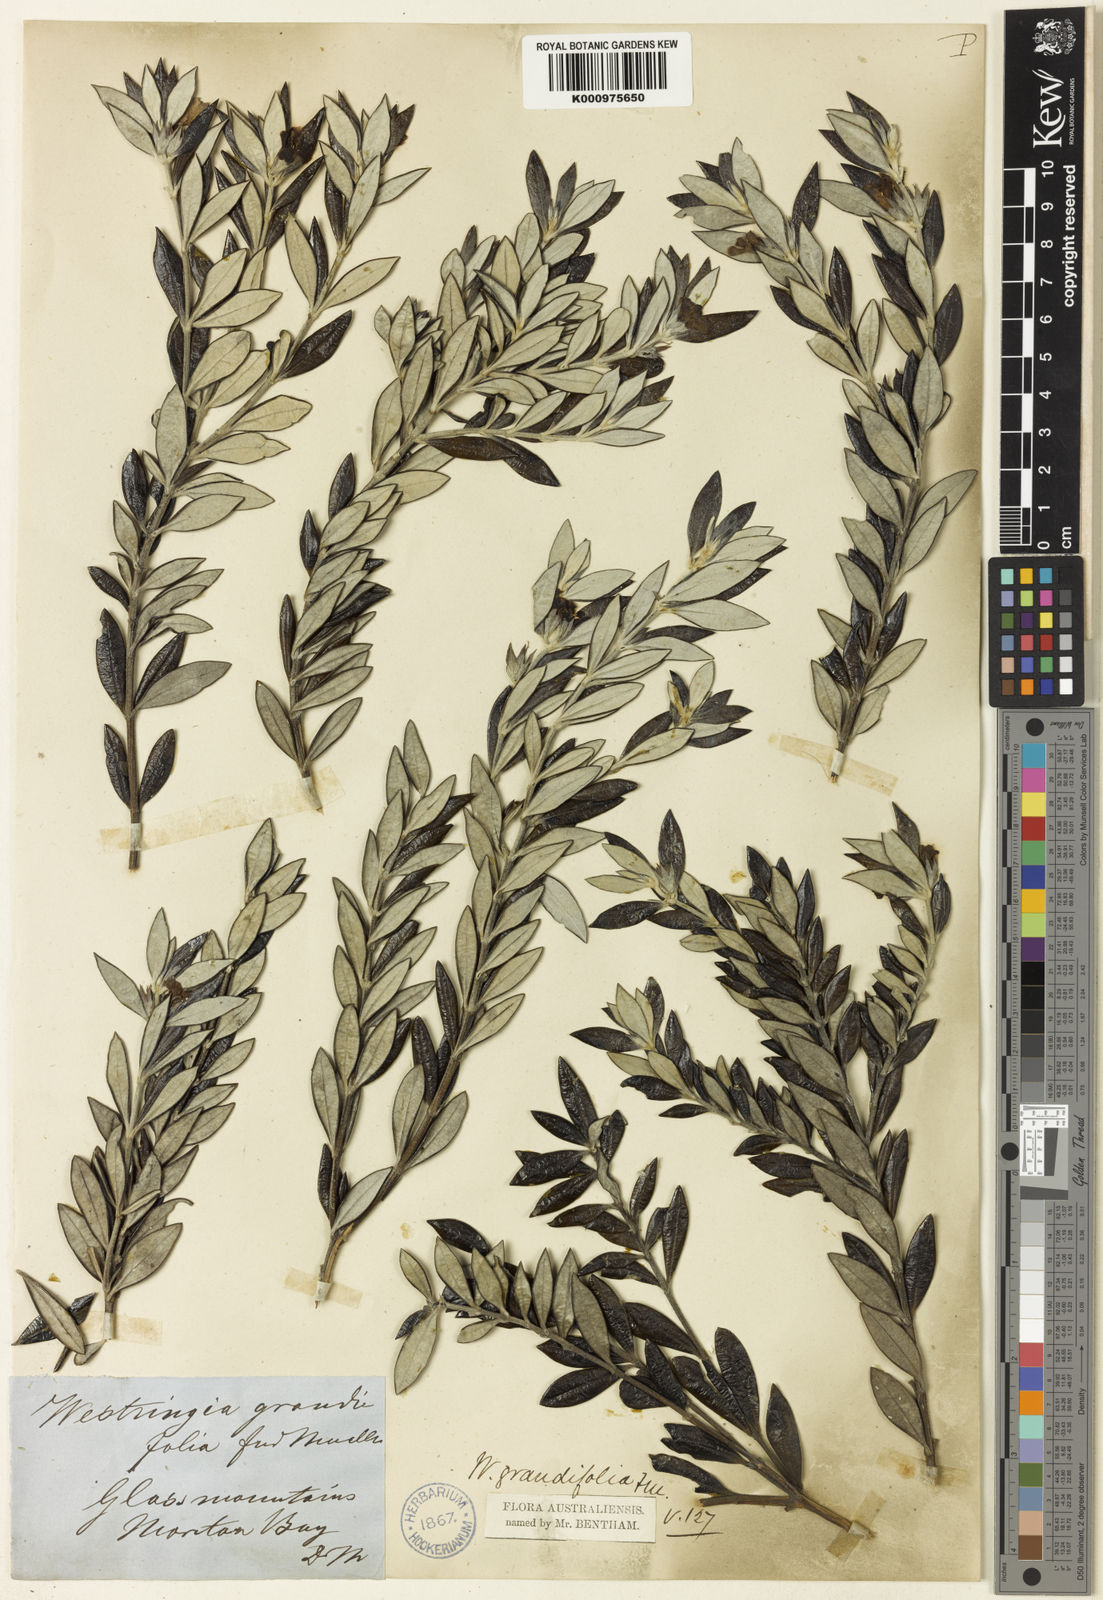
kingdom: Plantae
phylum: Tracheophyta
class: Magnoliopsida
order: Lamiales
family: Lamiaceae
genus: Westringia
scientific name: Westringia grandifolia
